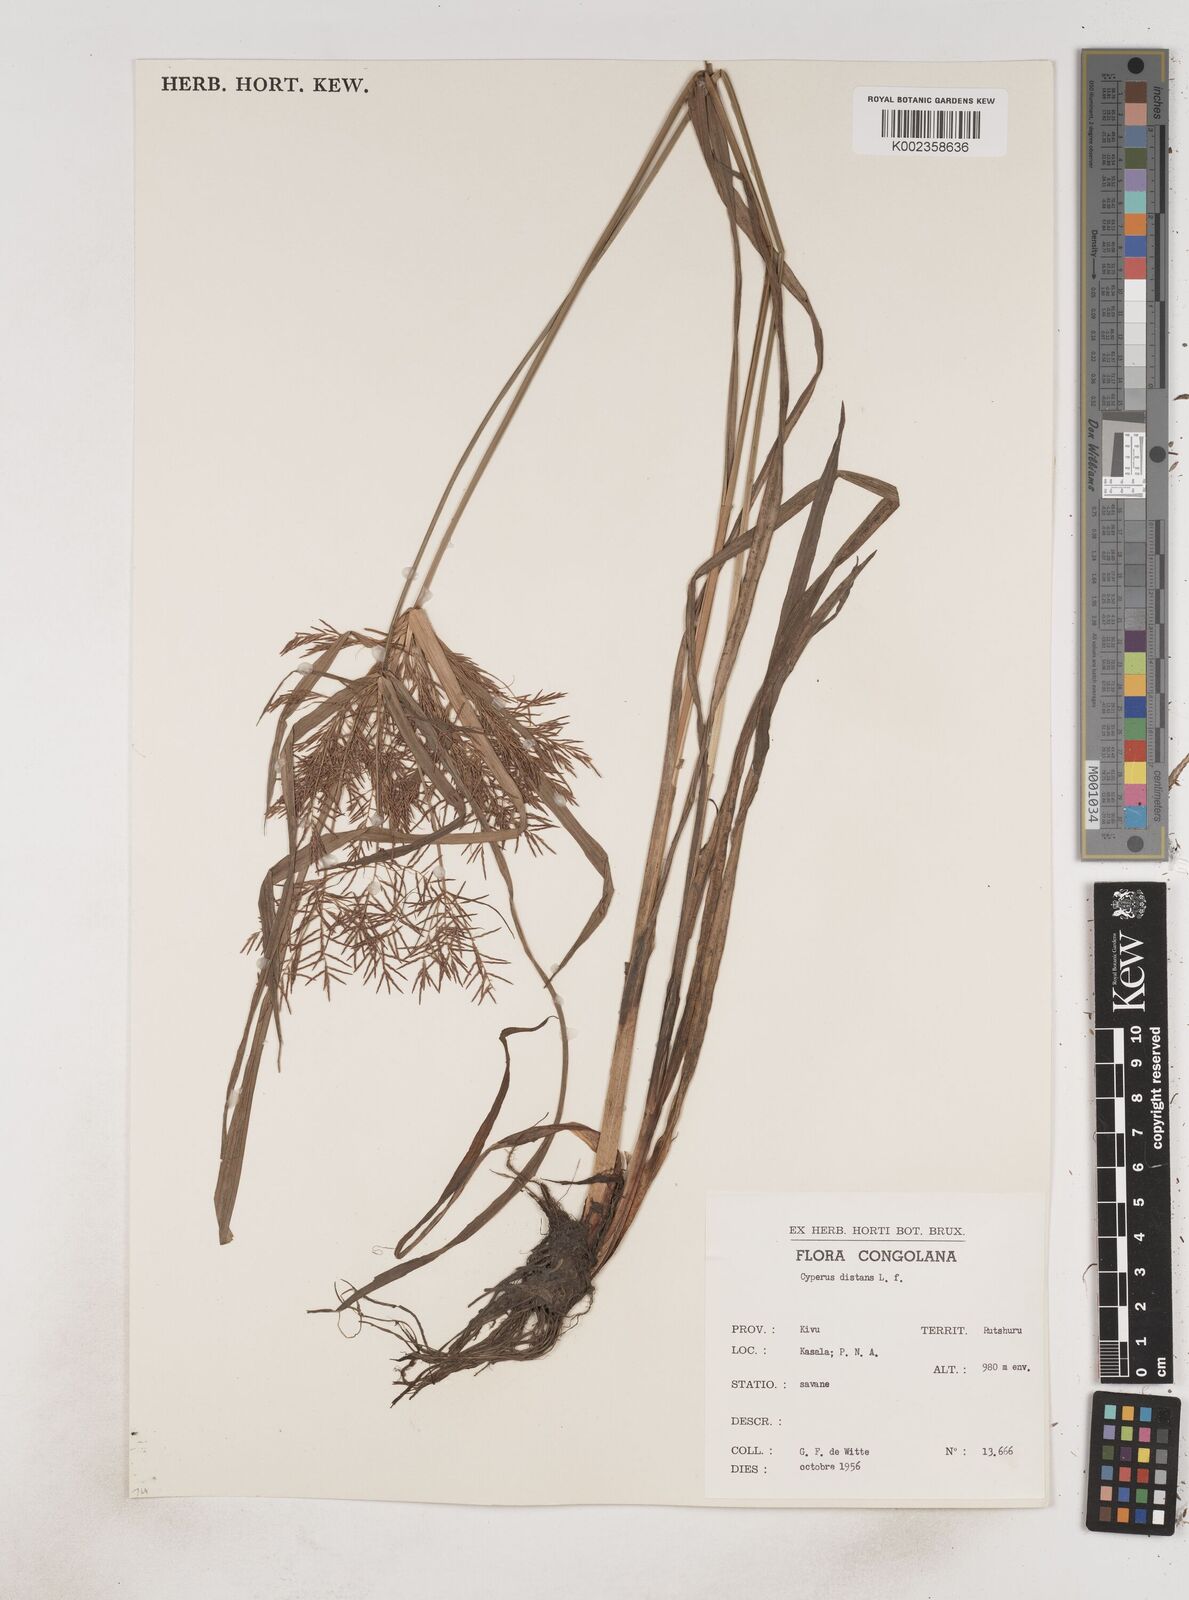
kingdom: Plantae
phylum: Tracheophyta
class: Liliopsida
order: Poales
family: Cyperaceae
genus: Cyperus
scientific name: Cyperus distans
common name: Slender cyperus
